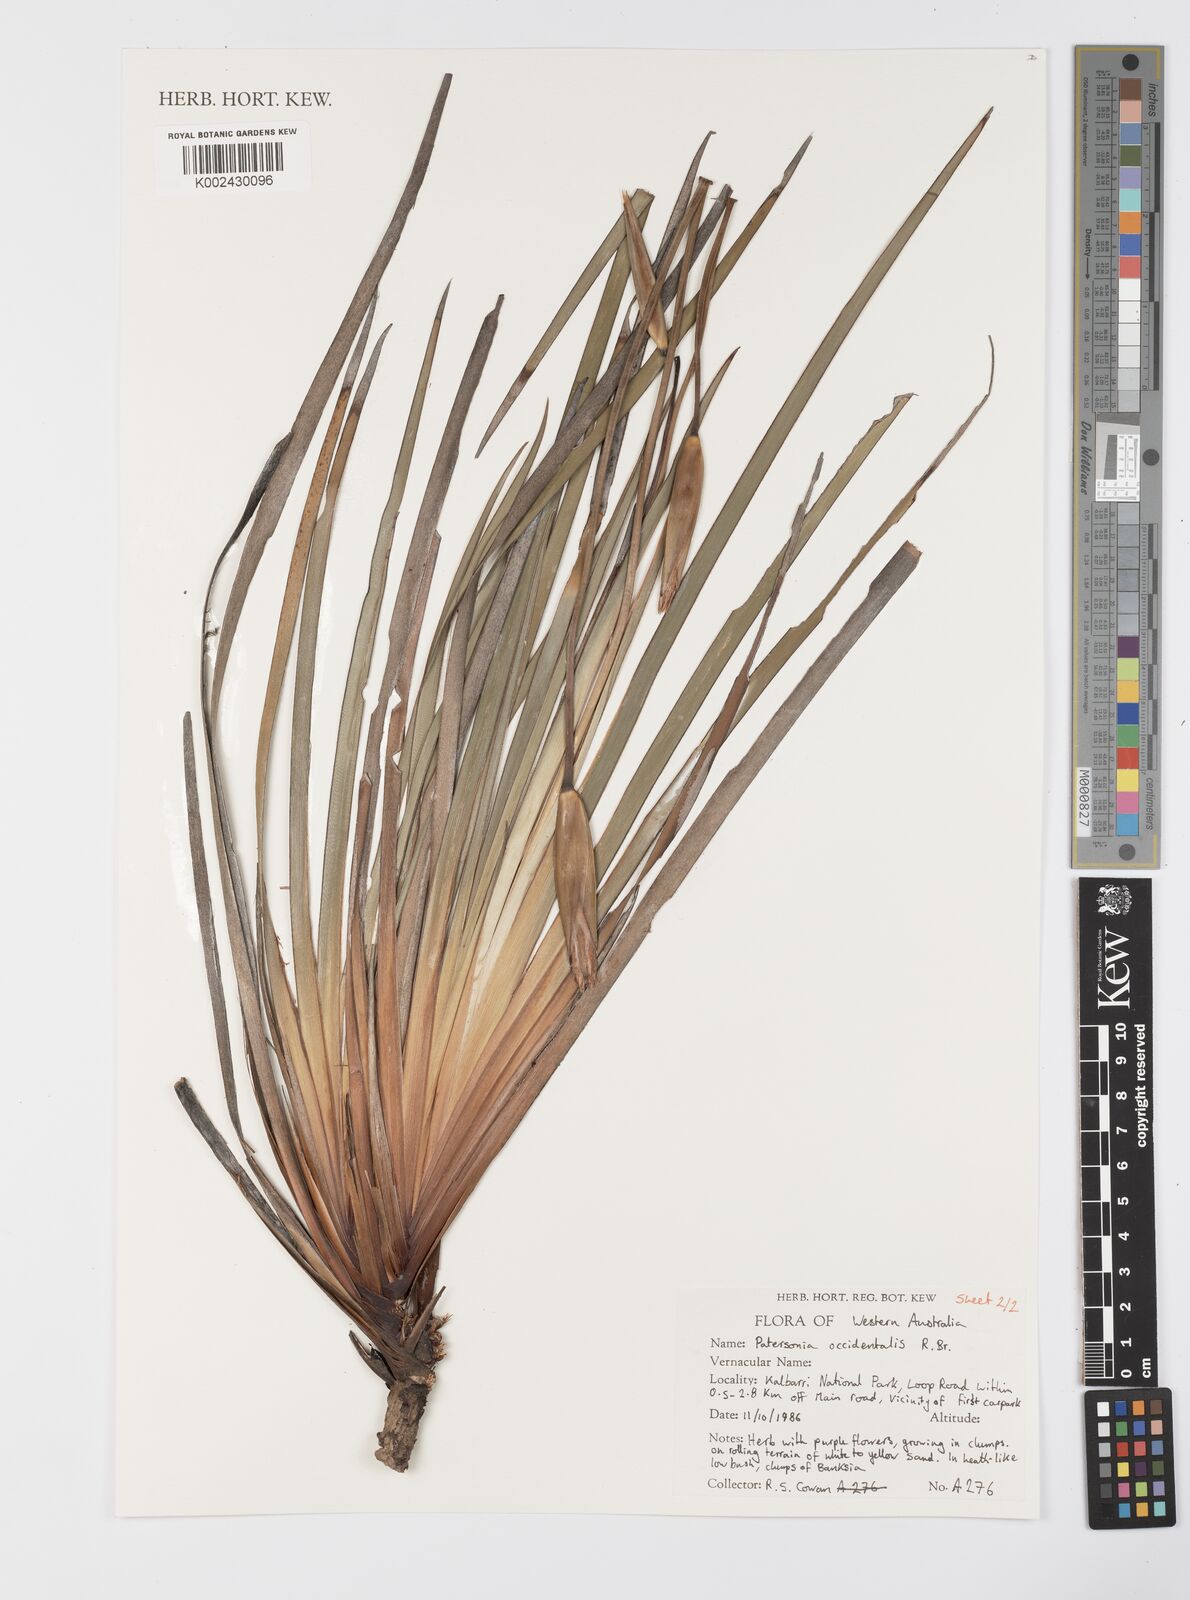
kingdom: Plantae
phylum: Tracheophyta
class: Liliopsida
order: Asparagales
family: Iridaceae
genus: Patersonia
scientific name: Patersonia occidentalis
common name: Long purple-flag
